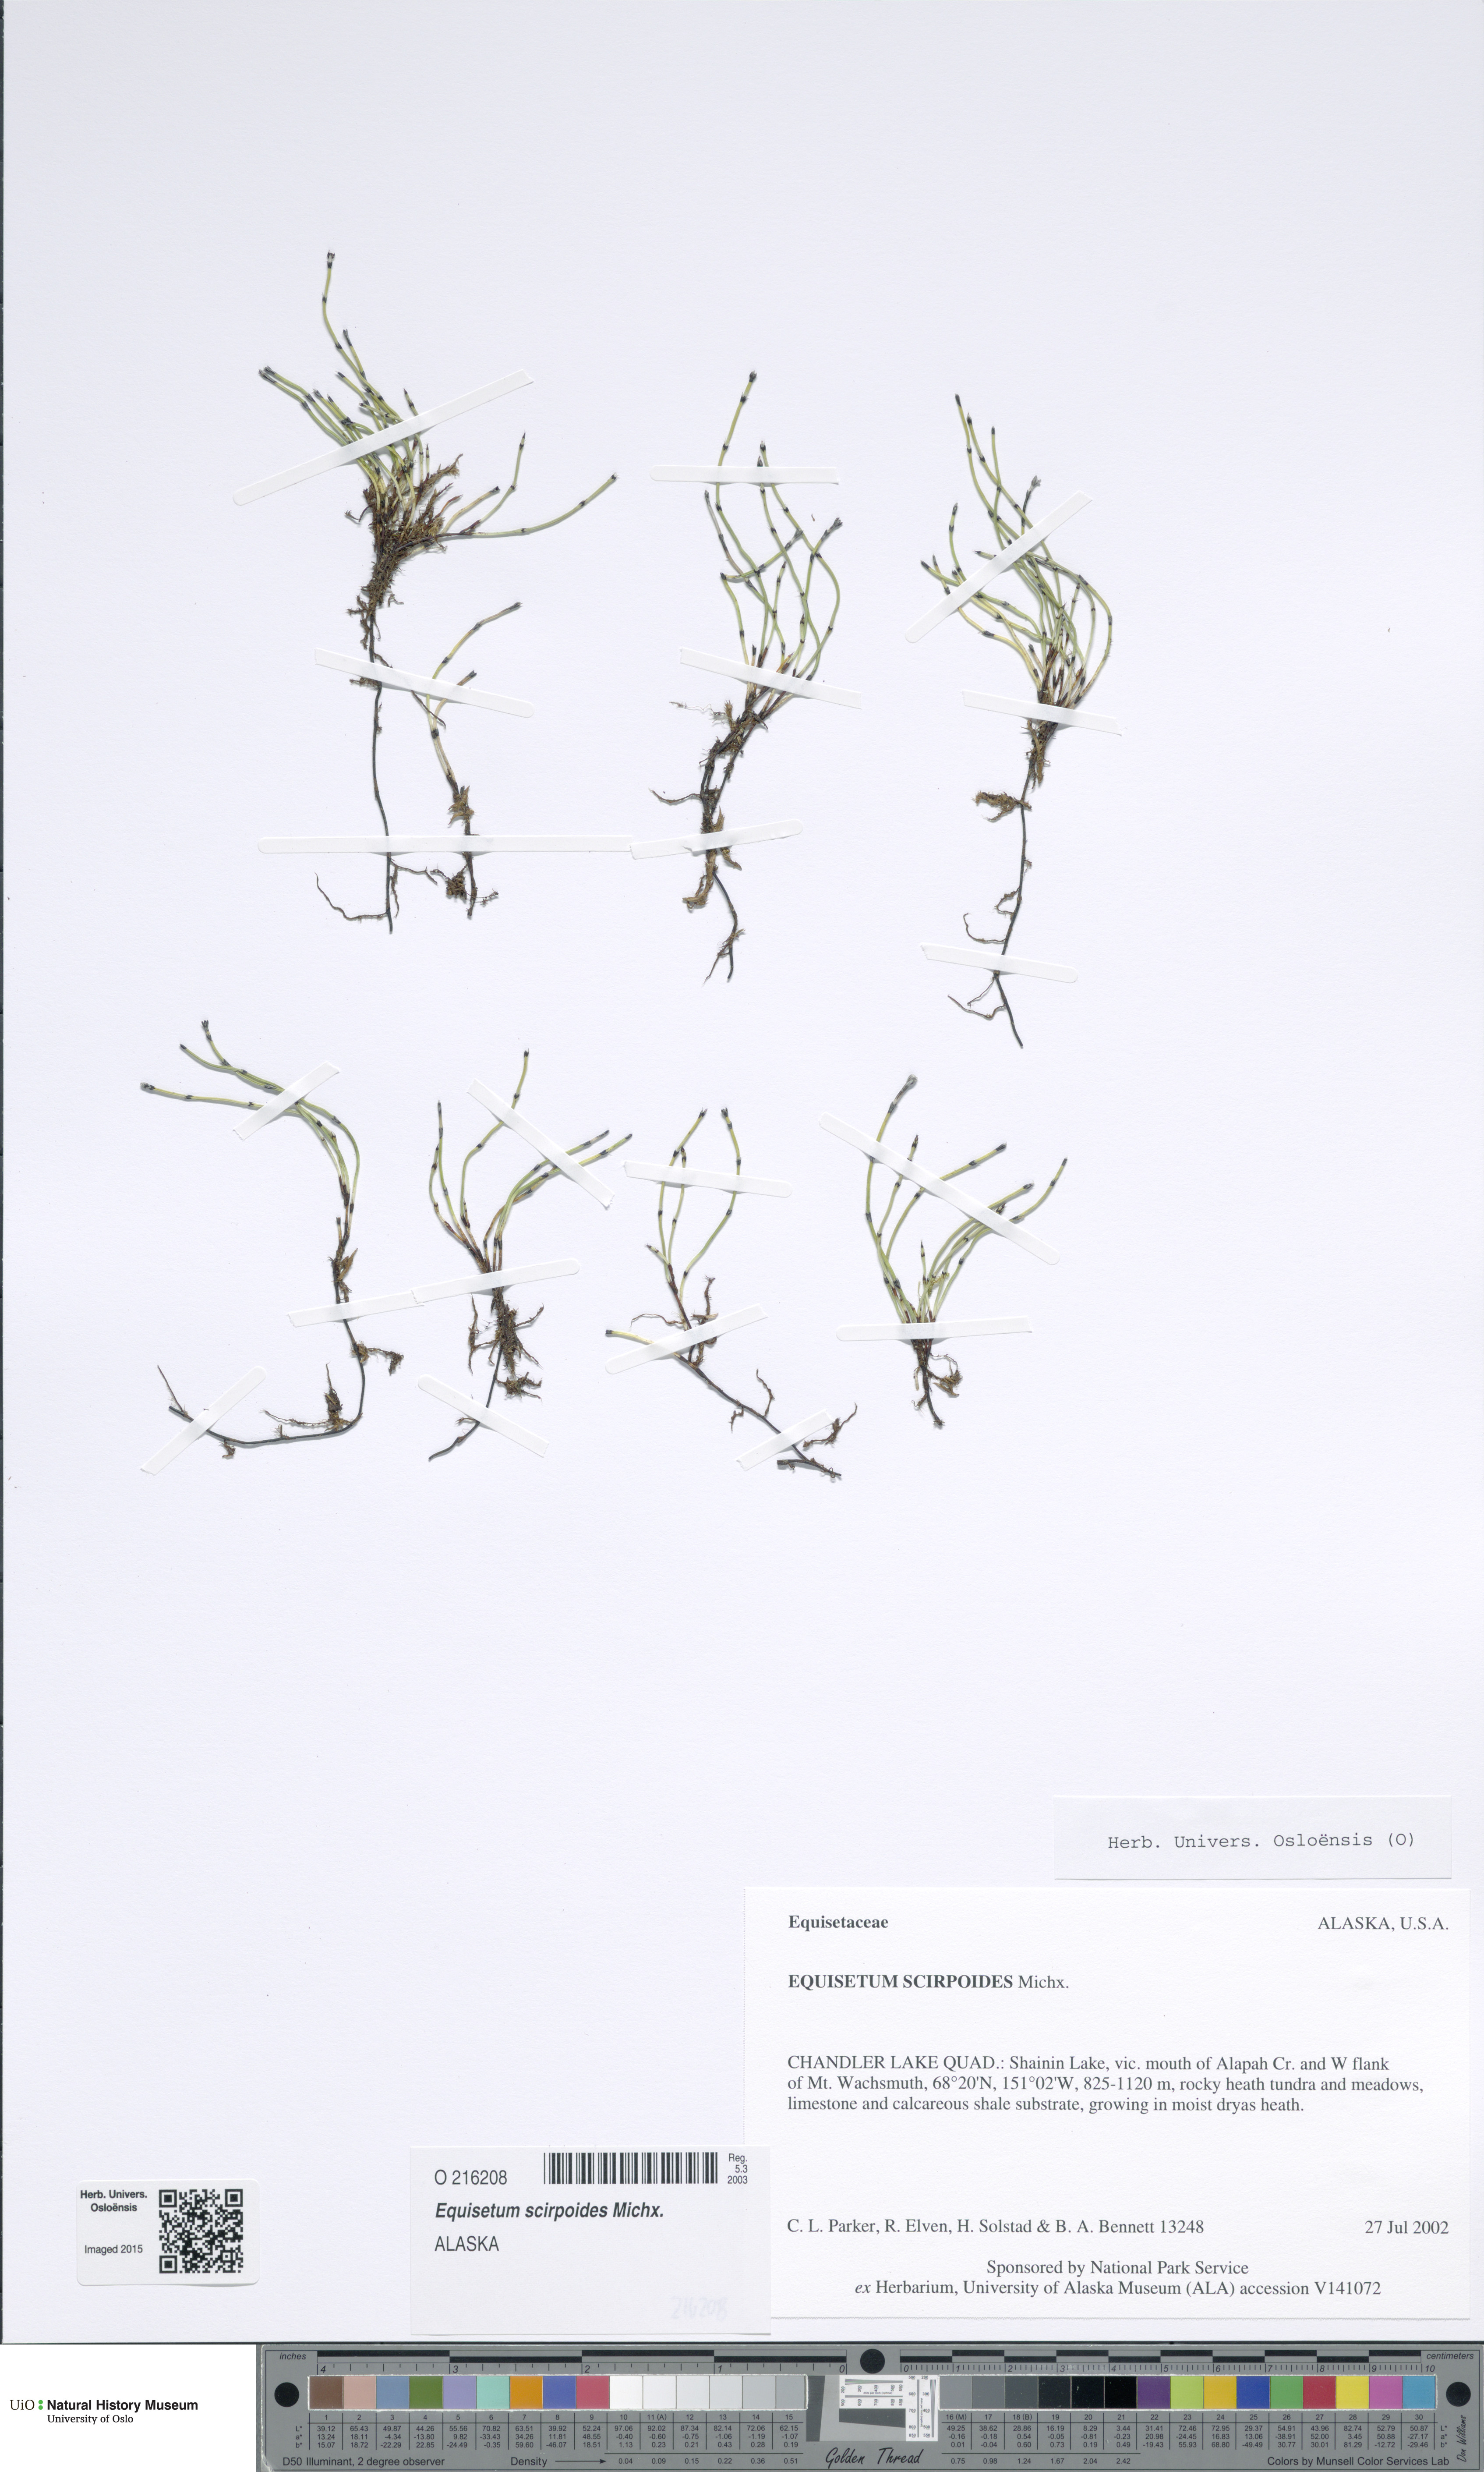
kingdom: Plantae
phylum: Tracheophyta
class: Polypodiopsida
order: Equisetales
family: Equisetaceae
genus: Equisetum
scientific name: Equisetum scirpoides
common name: Delicate horsetail
